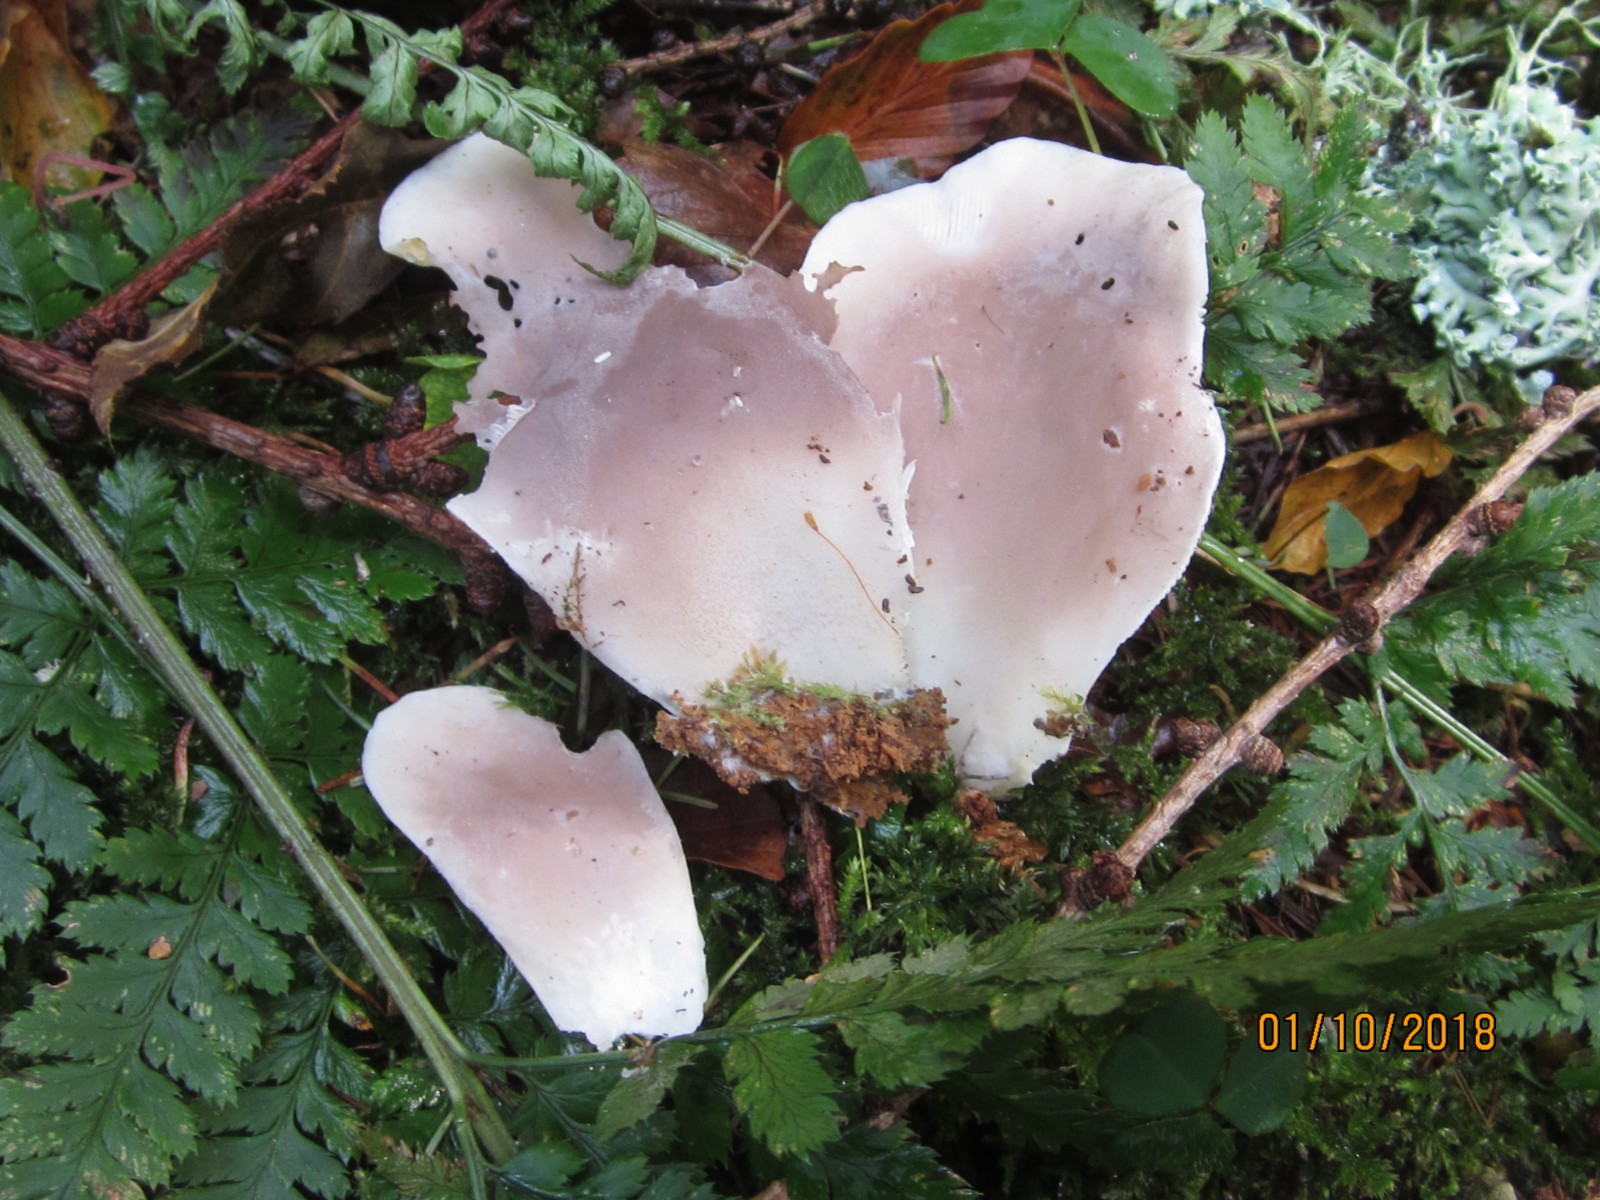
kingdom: Fungi
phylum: Basidiomycota
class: Agaricomycetes
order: Agaricales
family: Marasmiaceae
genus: Pleurocybella
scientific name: Pleurocybella porrigens
